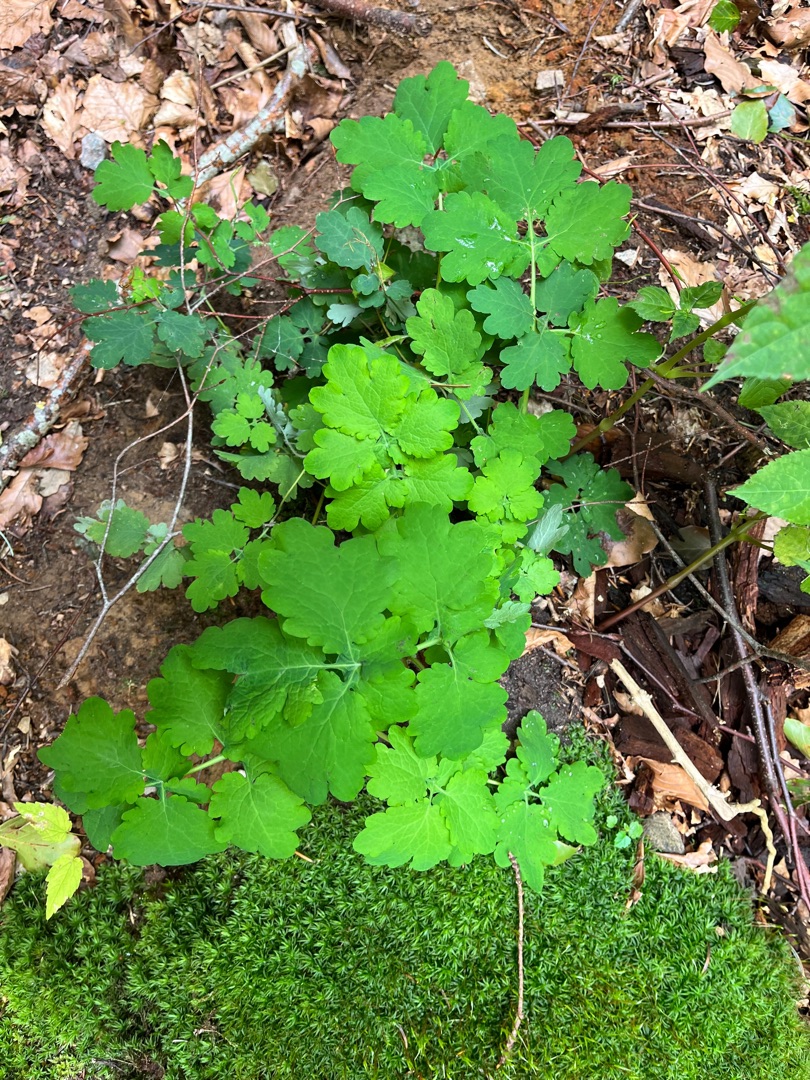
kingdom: Plantae
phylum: Tracheophyta
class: Magnoliopsida
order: Ranunculales
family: Papaveraceae
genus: Chelidonium
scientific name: Chelidonium majus
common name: Svaleurt
